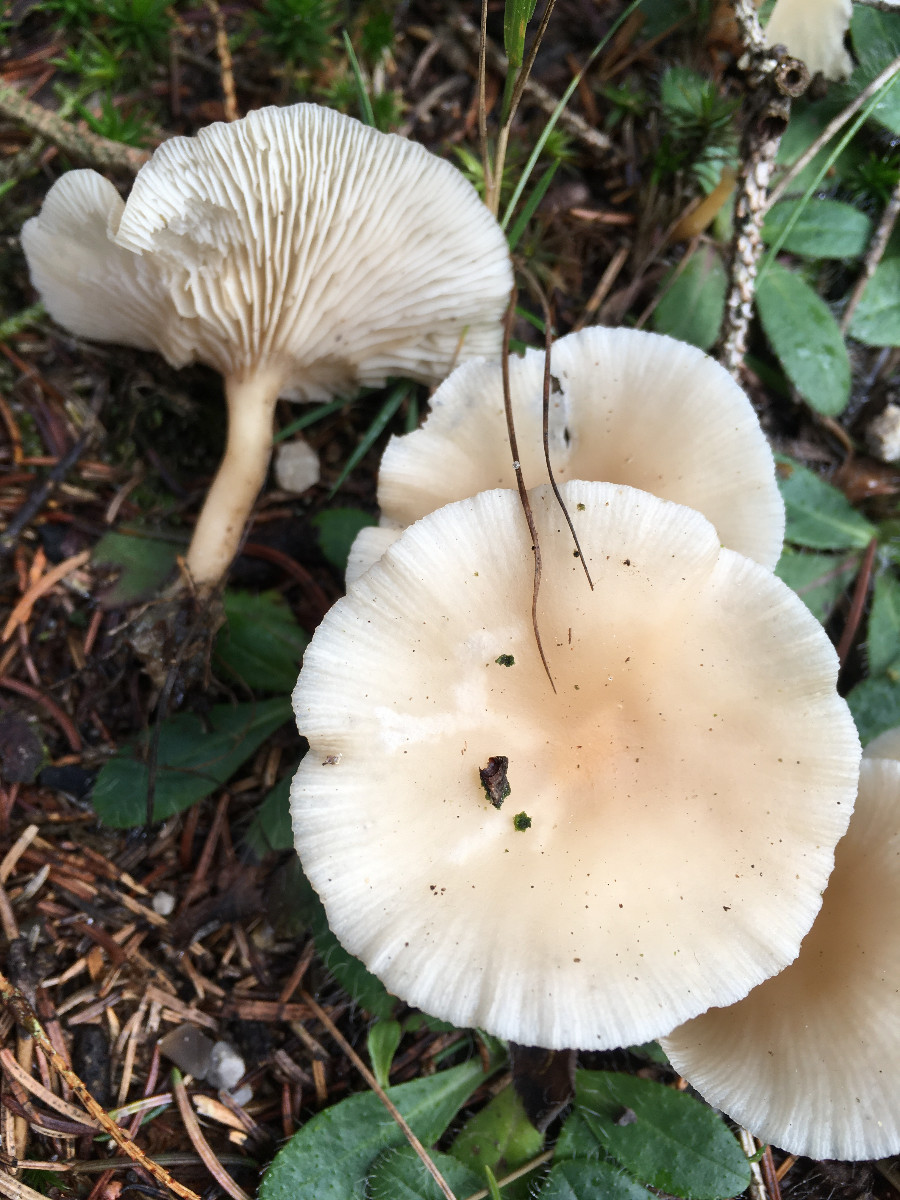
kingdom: Fungi
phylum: Basidiomycota
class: Agaricomycetes
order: Agaricales
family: Tricholomataceae
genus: Clitocybe
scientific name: Clitocybe fragrans
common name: vellugtende tragthat
